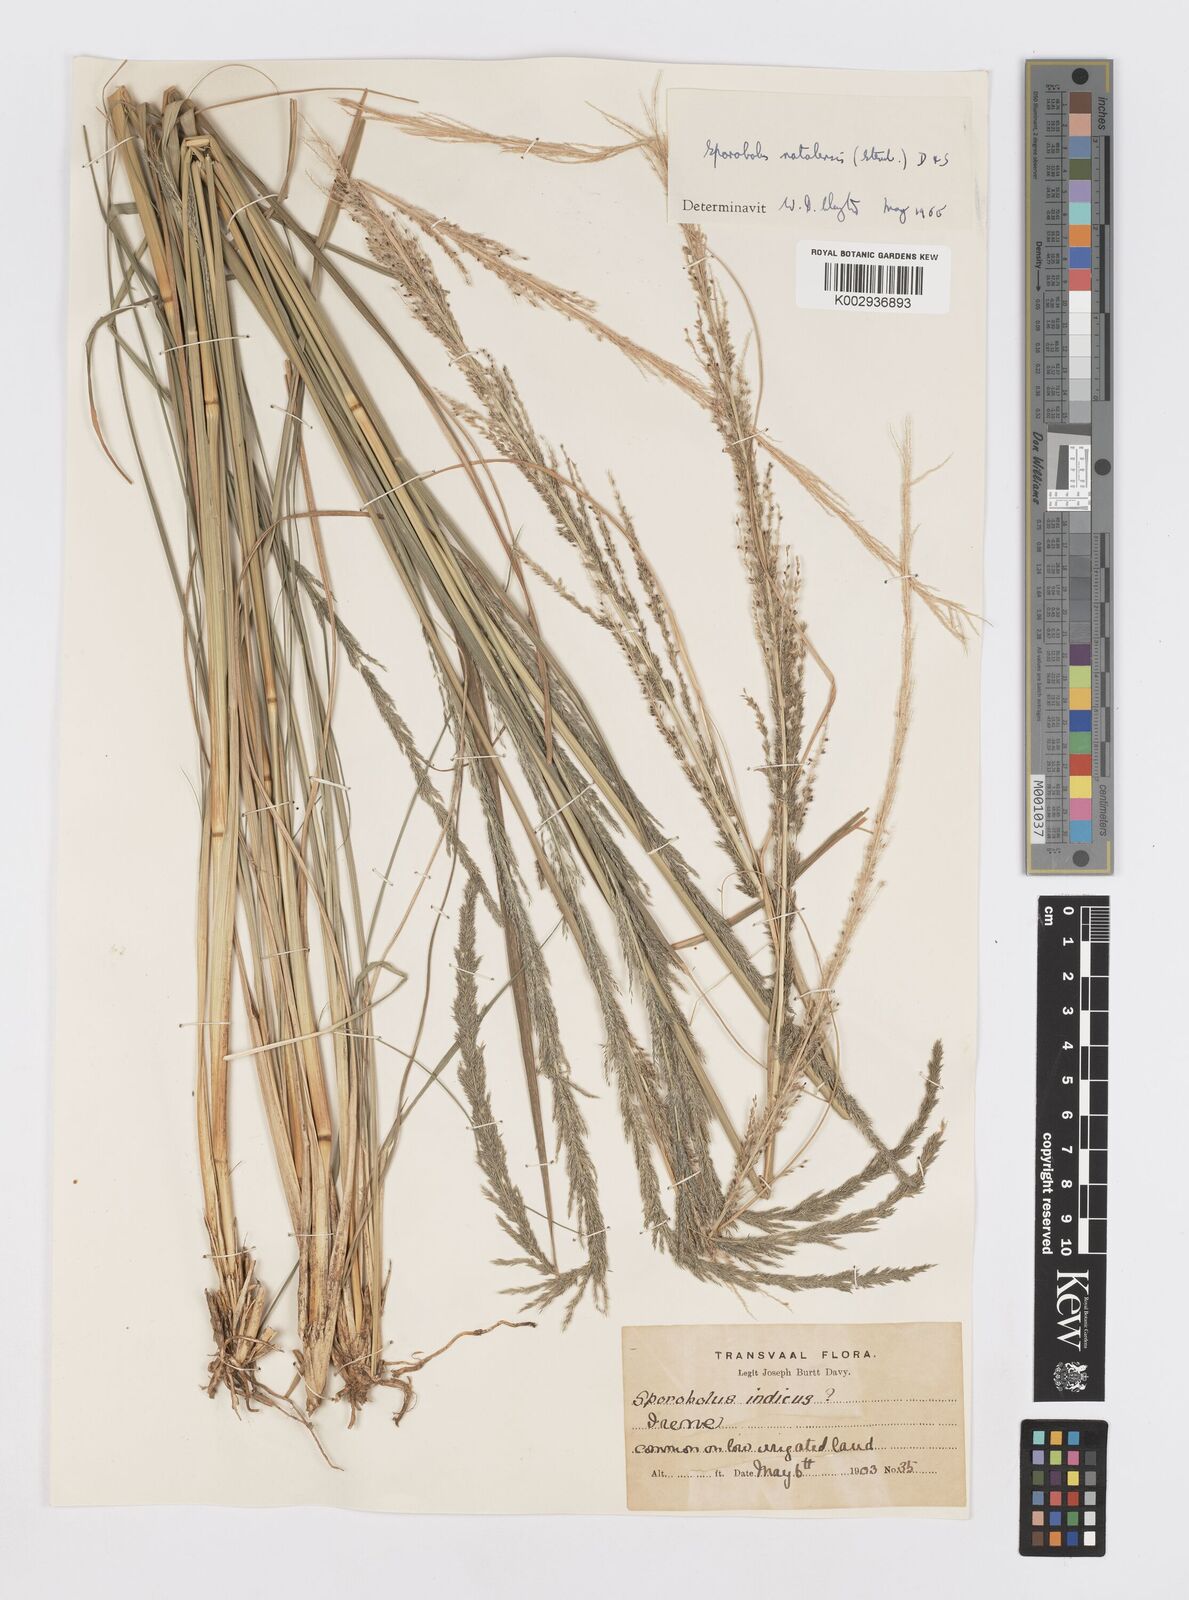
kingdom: Plantae
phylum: Tracheophyta
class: Liliopsida
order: Poales
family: Poaceae
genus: Sporobolus
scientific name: Sporobolus natalensis
